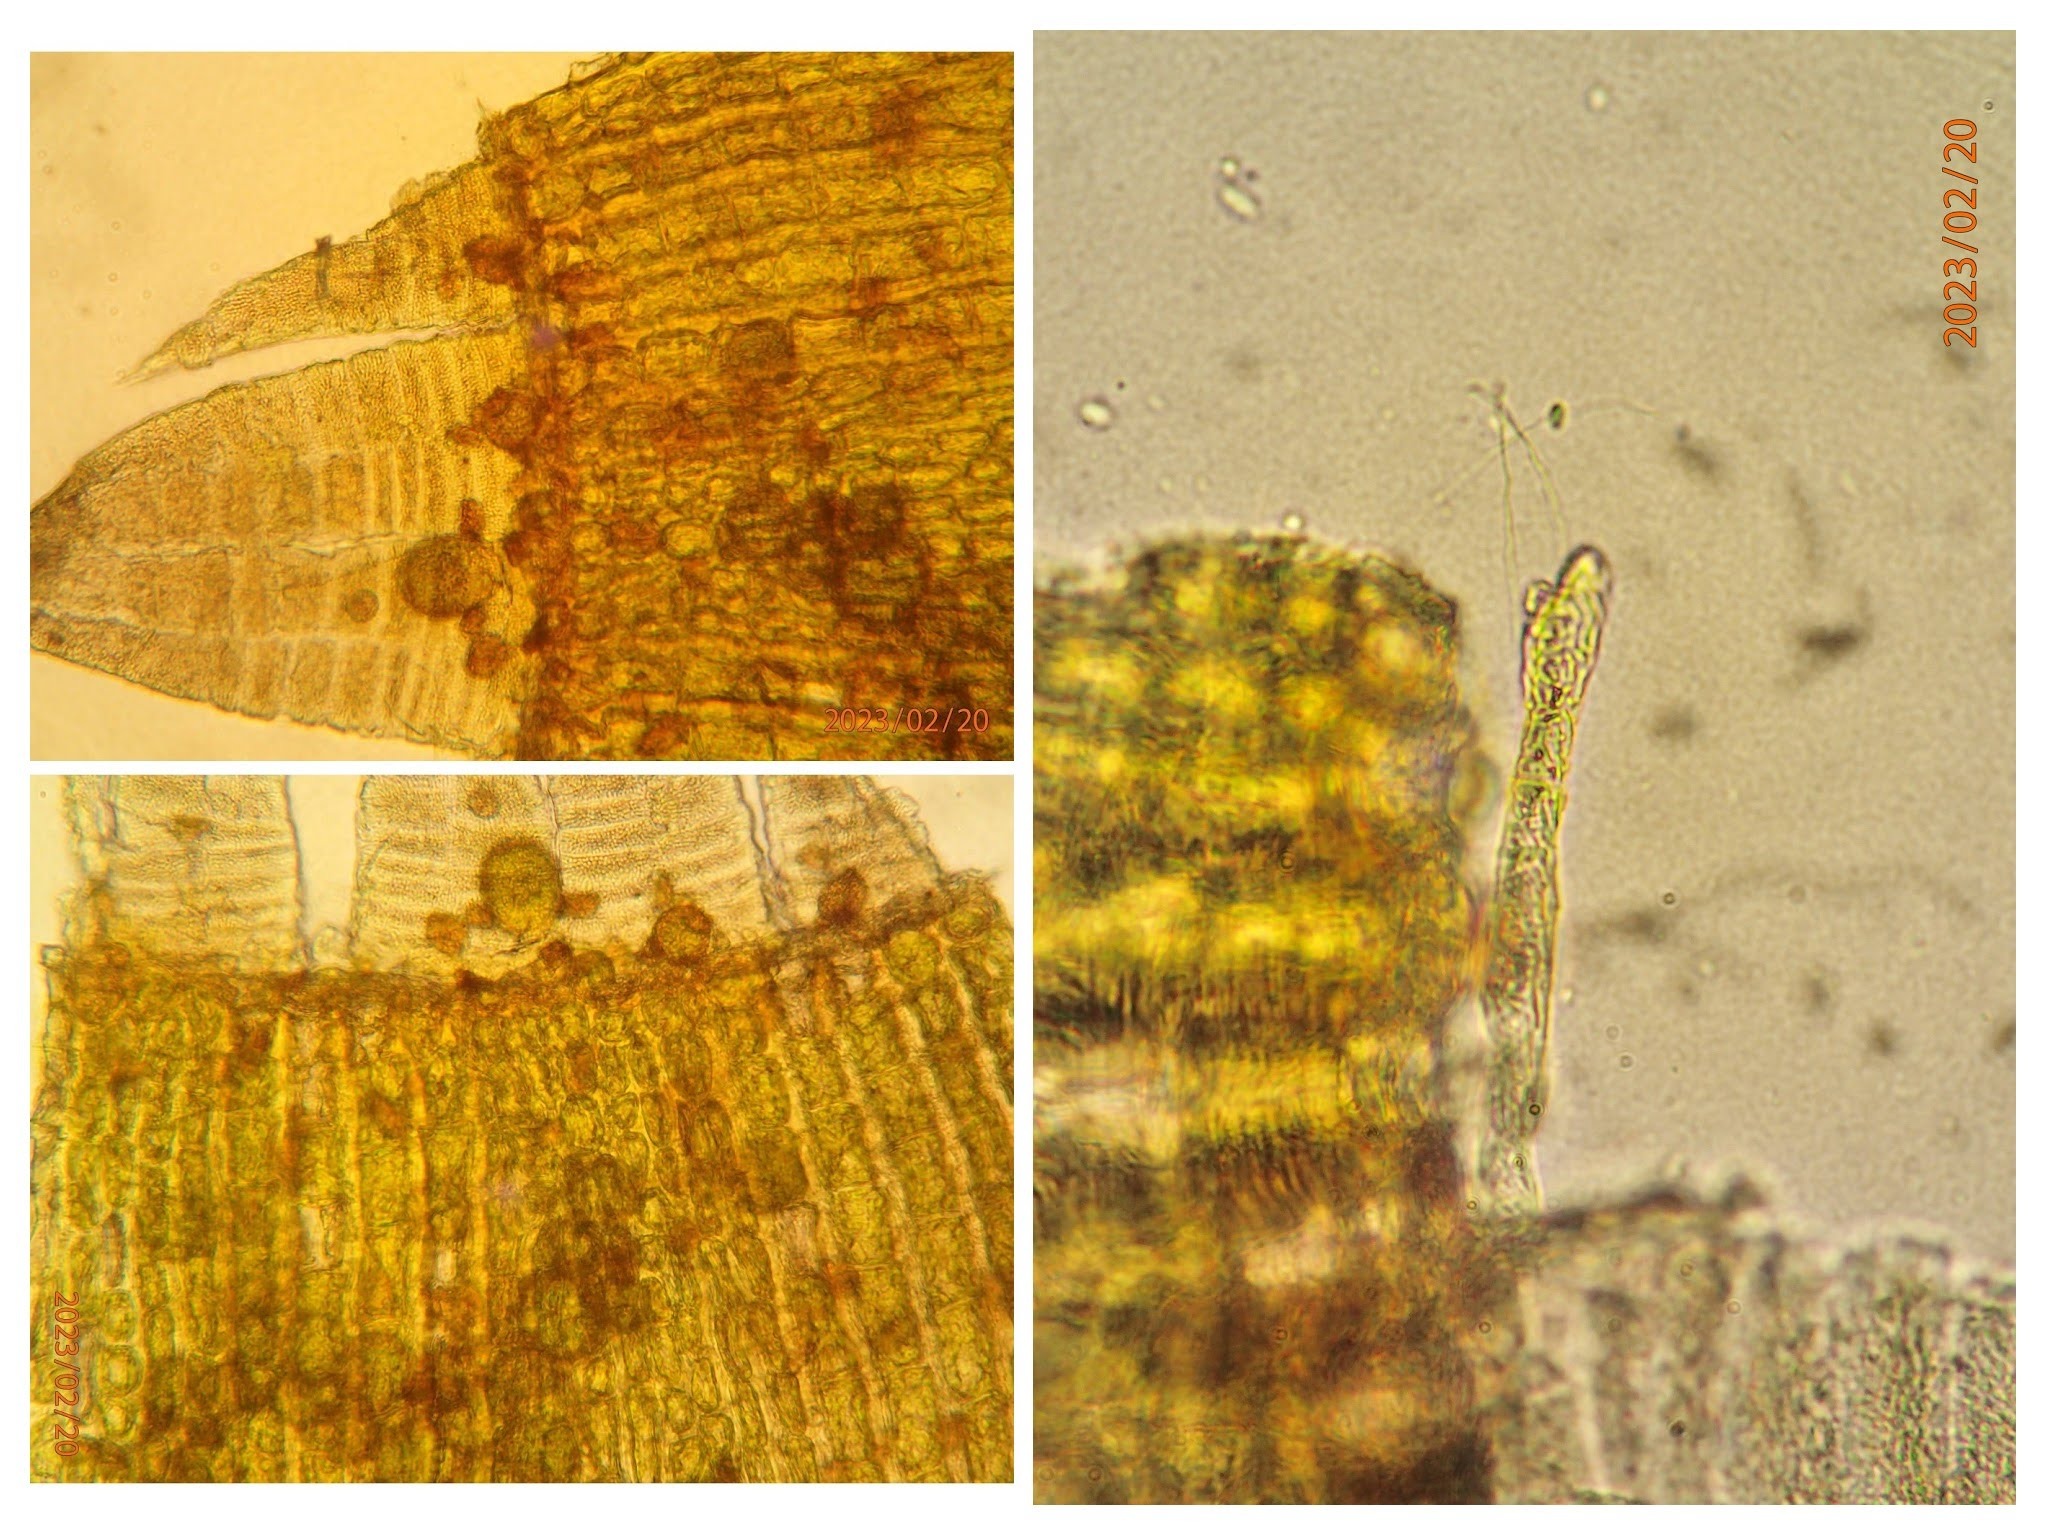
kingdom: Plantae
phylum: Bryophyta
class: Bryopsida
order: Orthotrichales
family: Orthotrichaceae
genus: Ulota
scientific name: Ulota bruchii
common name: Bruchs låddenhætte
